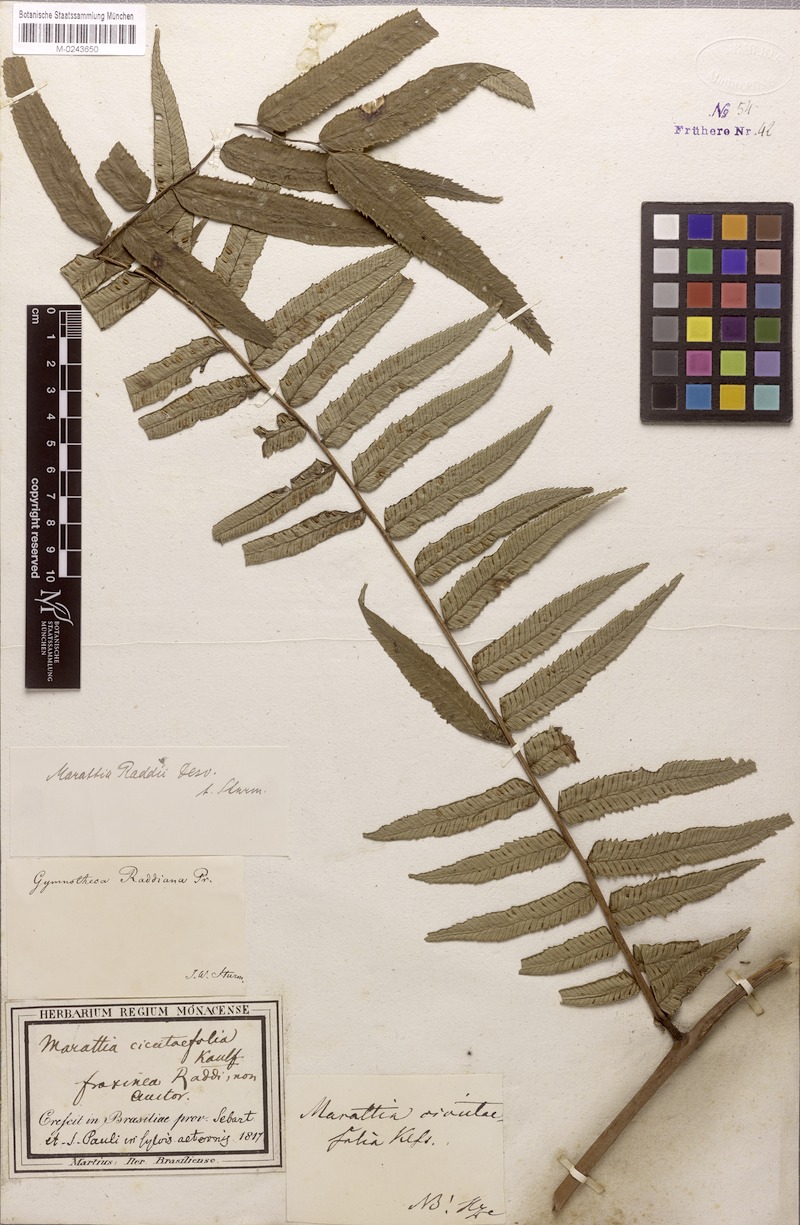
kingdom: Plantae
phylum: Tracheophyta
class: Polypodiopsida
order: Marattiales
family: Marattiaceae
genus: Eupodium
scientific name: Eupodium cicutifolium
